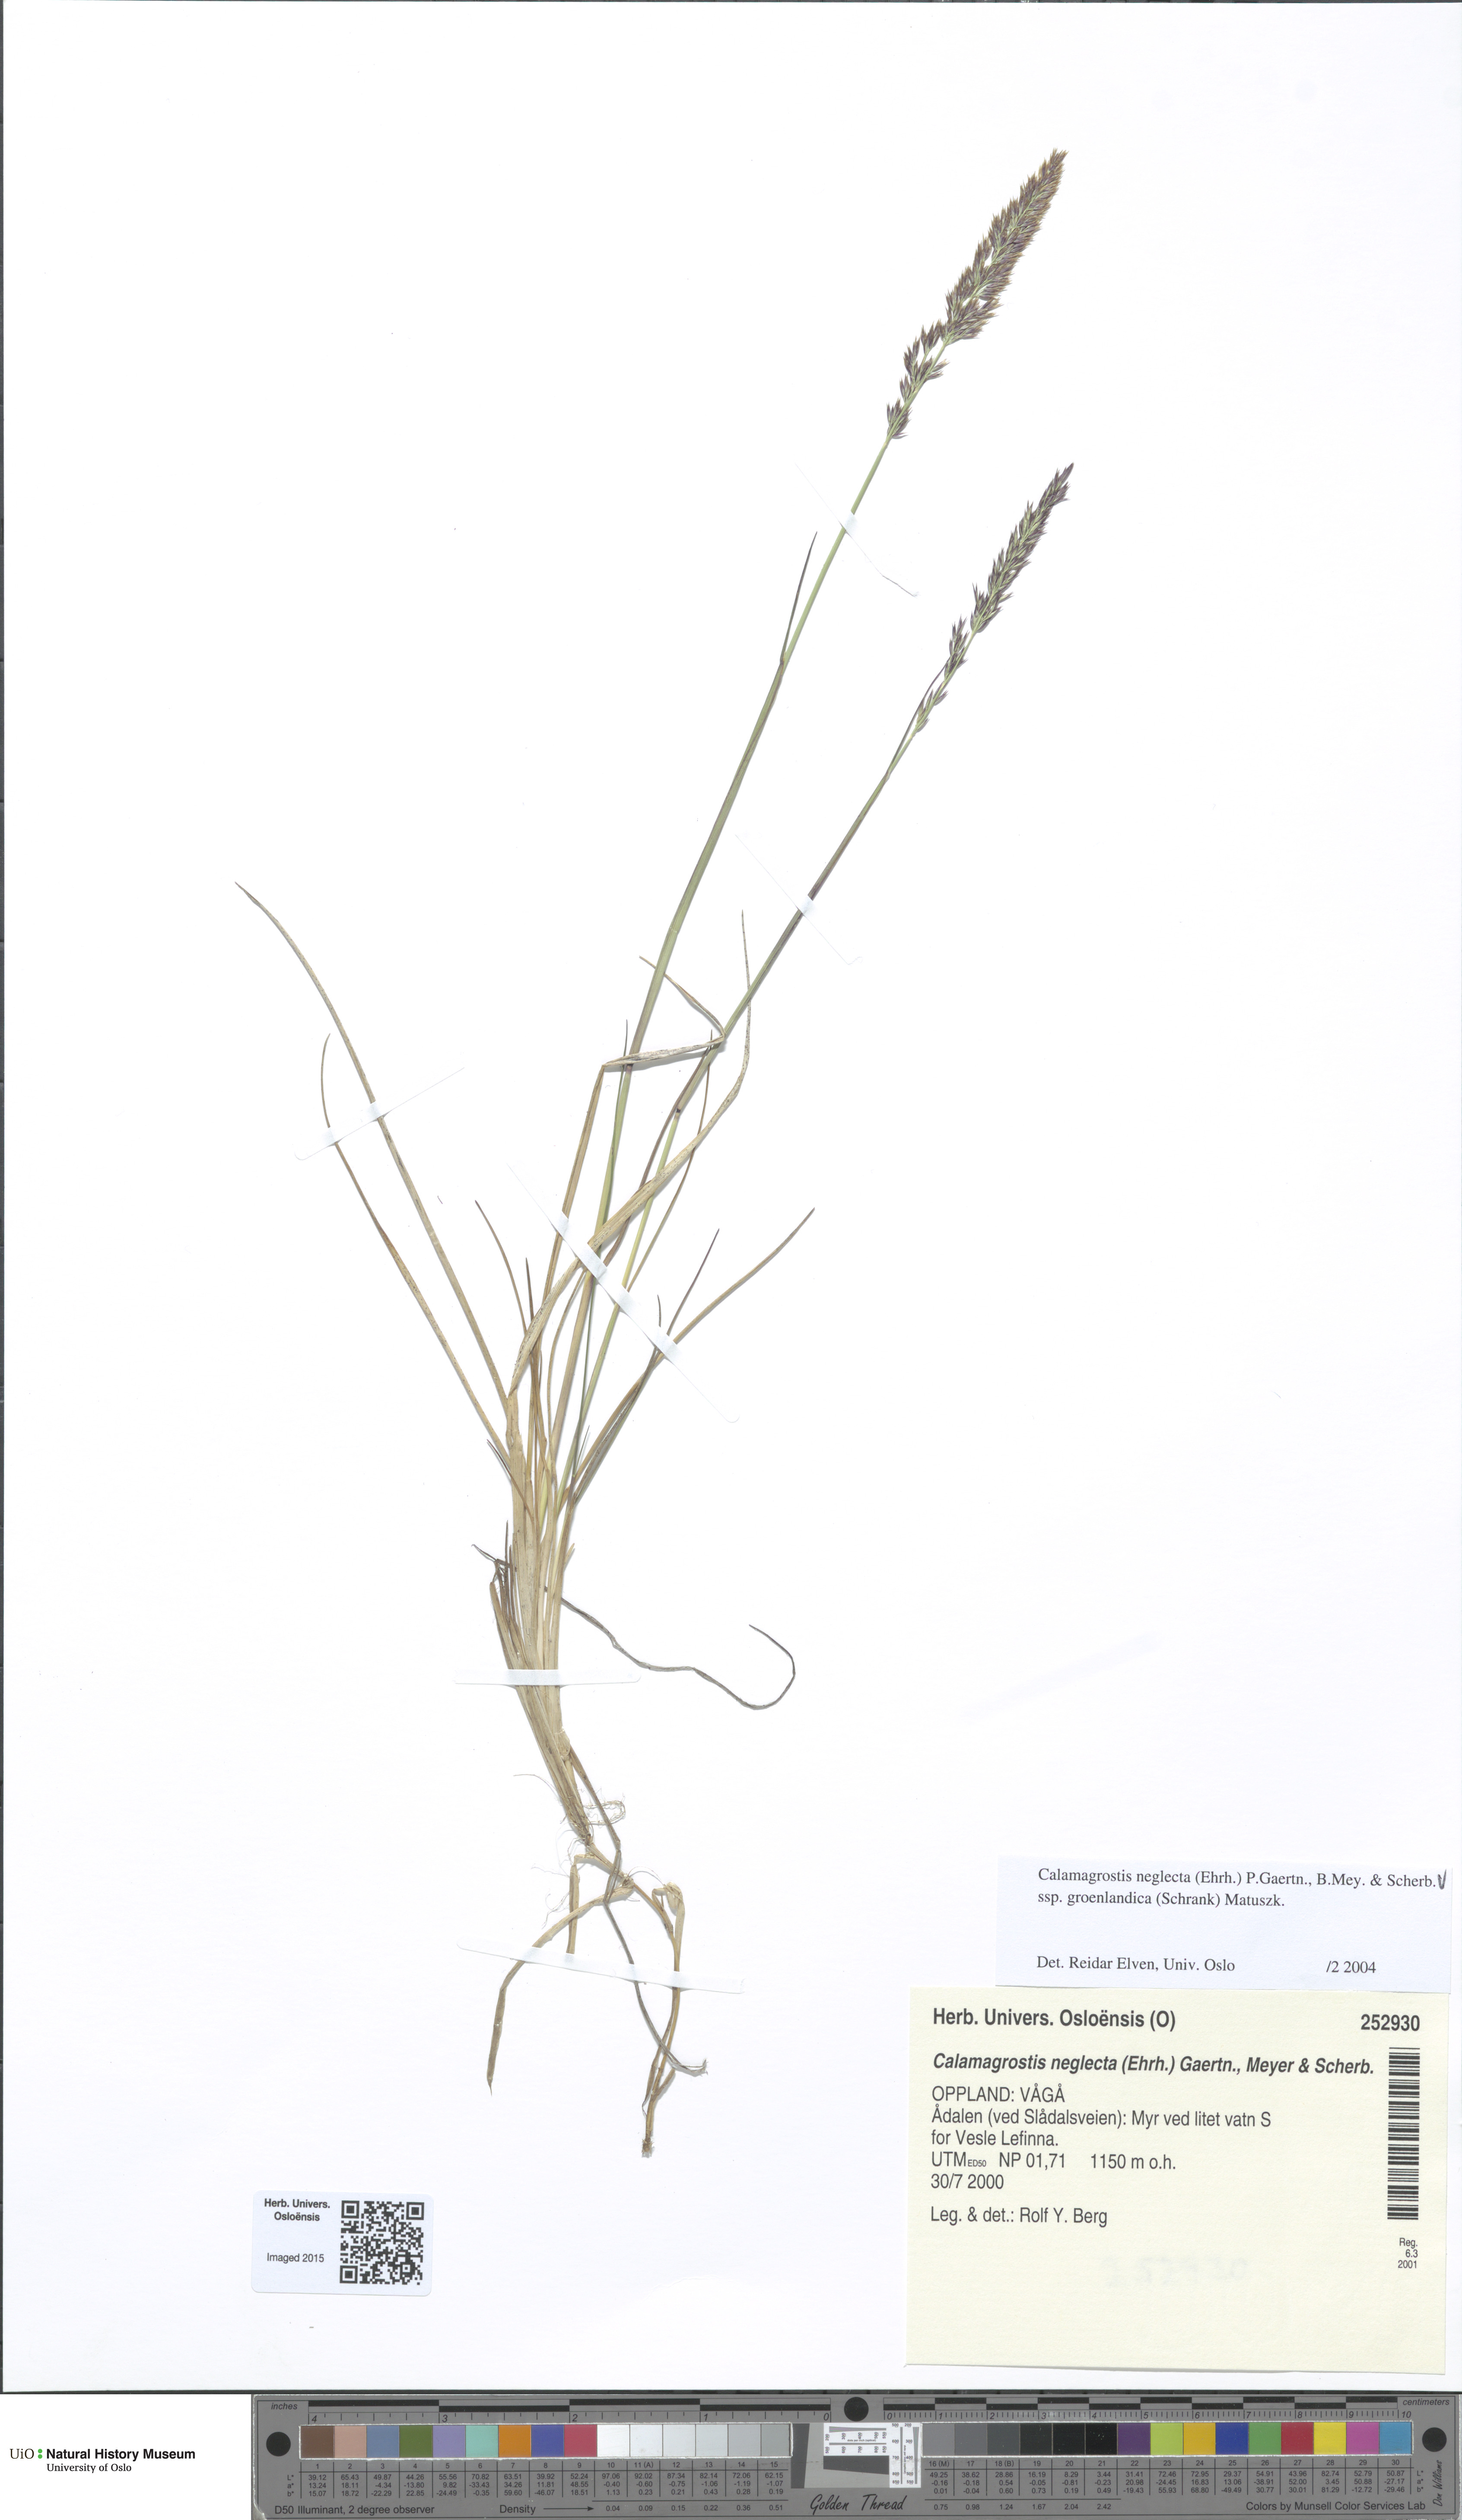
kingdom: Plantae
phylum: Tracheophyta
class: Liliopsida
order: Poales
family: Poaceae
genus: Calamagrostis
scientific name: Calamagrostis stricta
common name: Narrow small-reed
